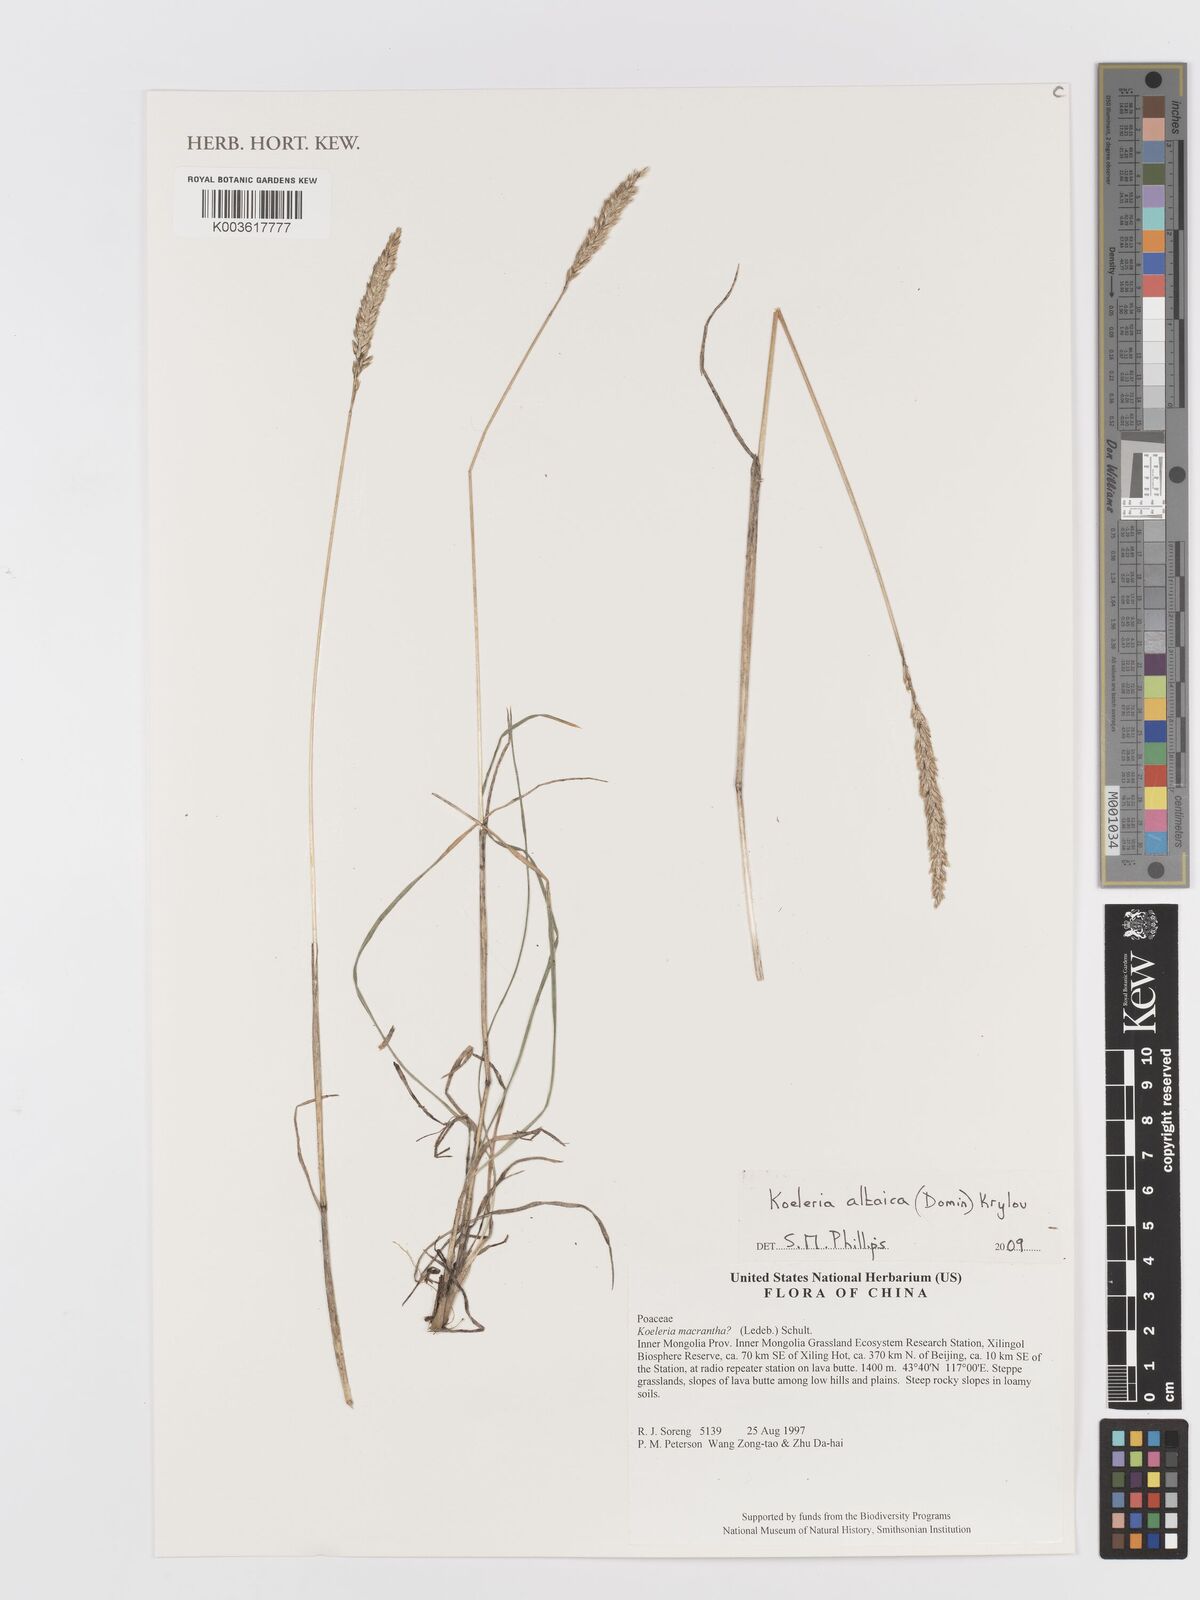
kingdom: Plantae
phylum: Tracheophyta
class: Liliopsida
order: Poales
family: Poaceae
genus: Koeleria
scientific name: Koeleria altaica
